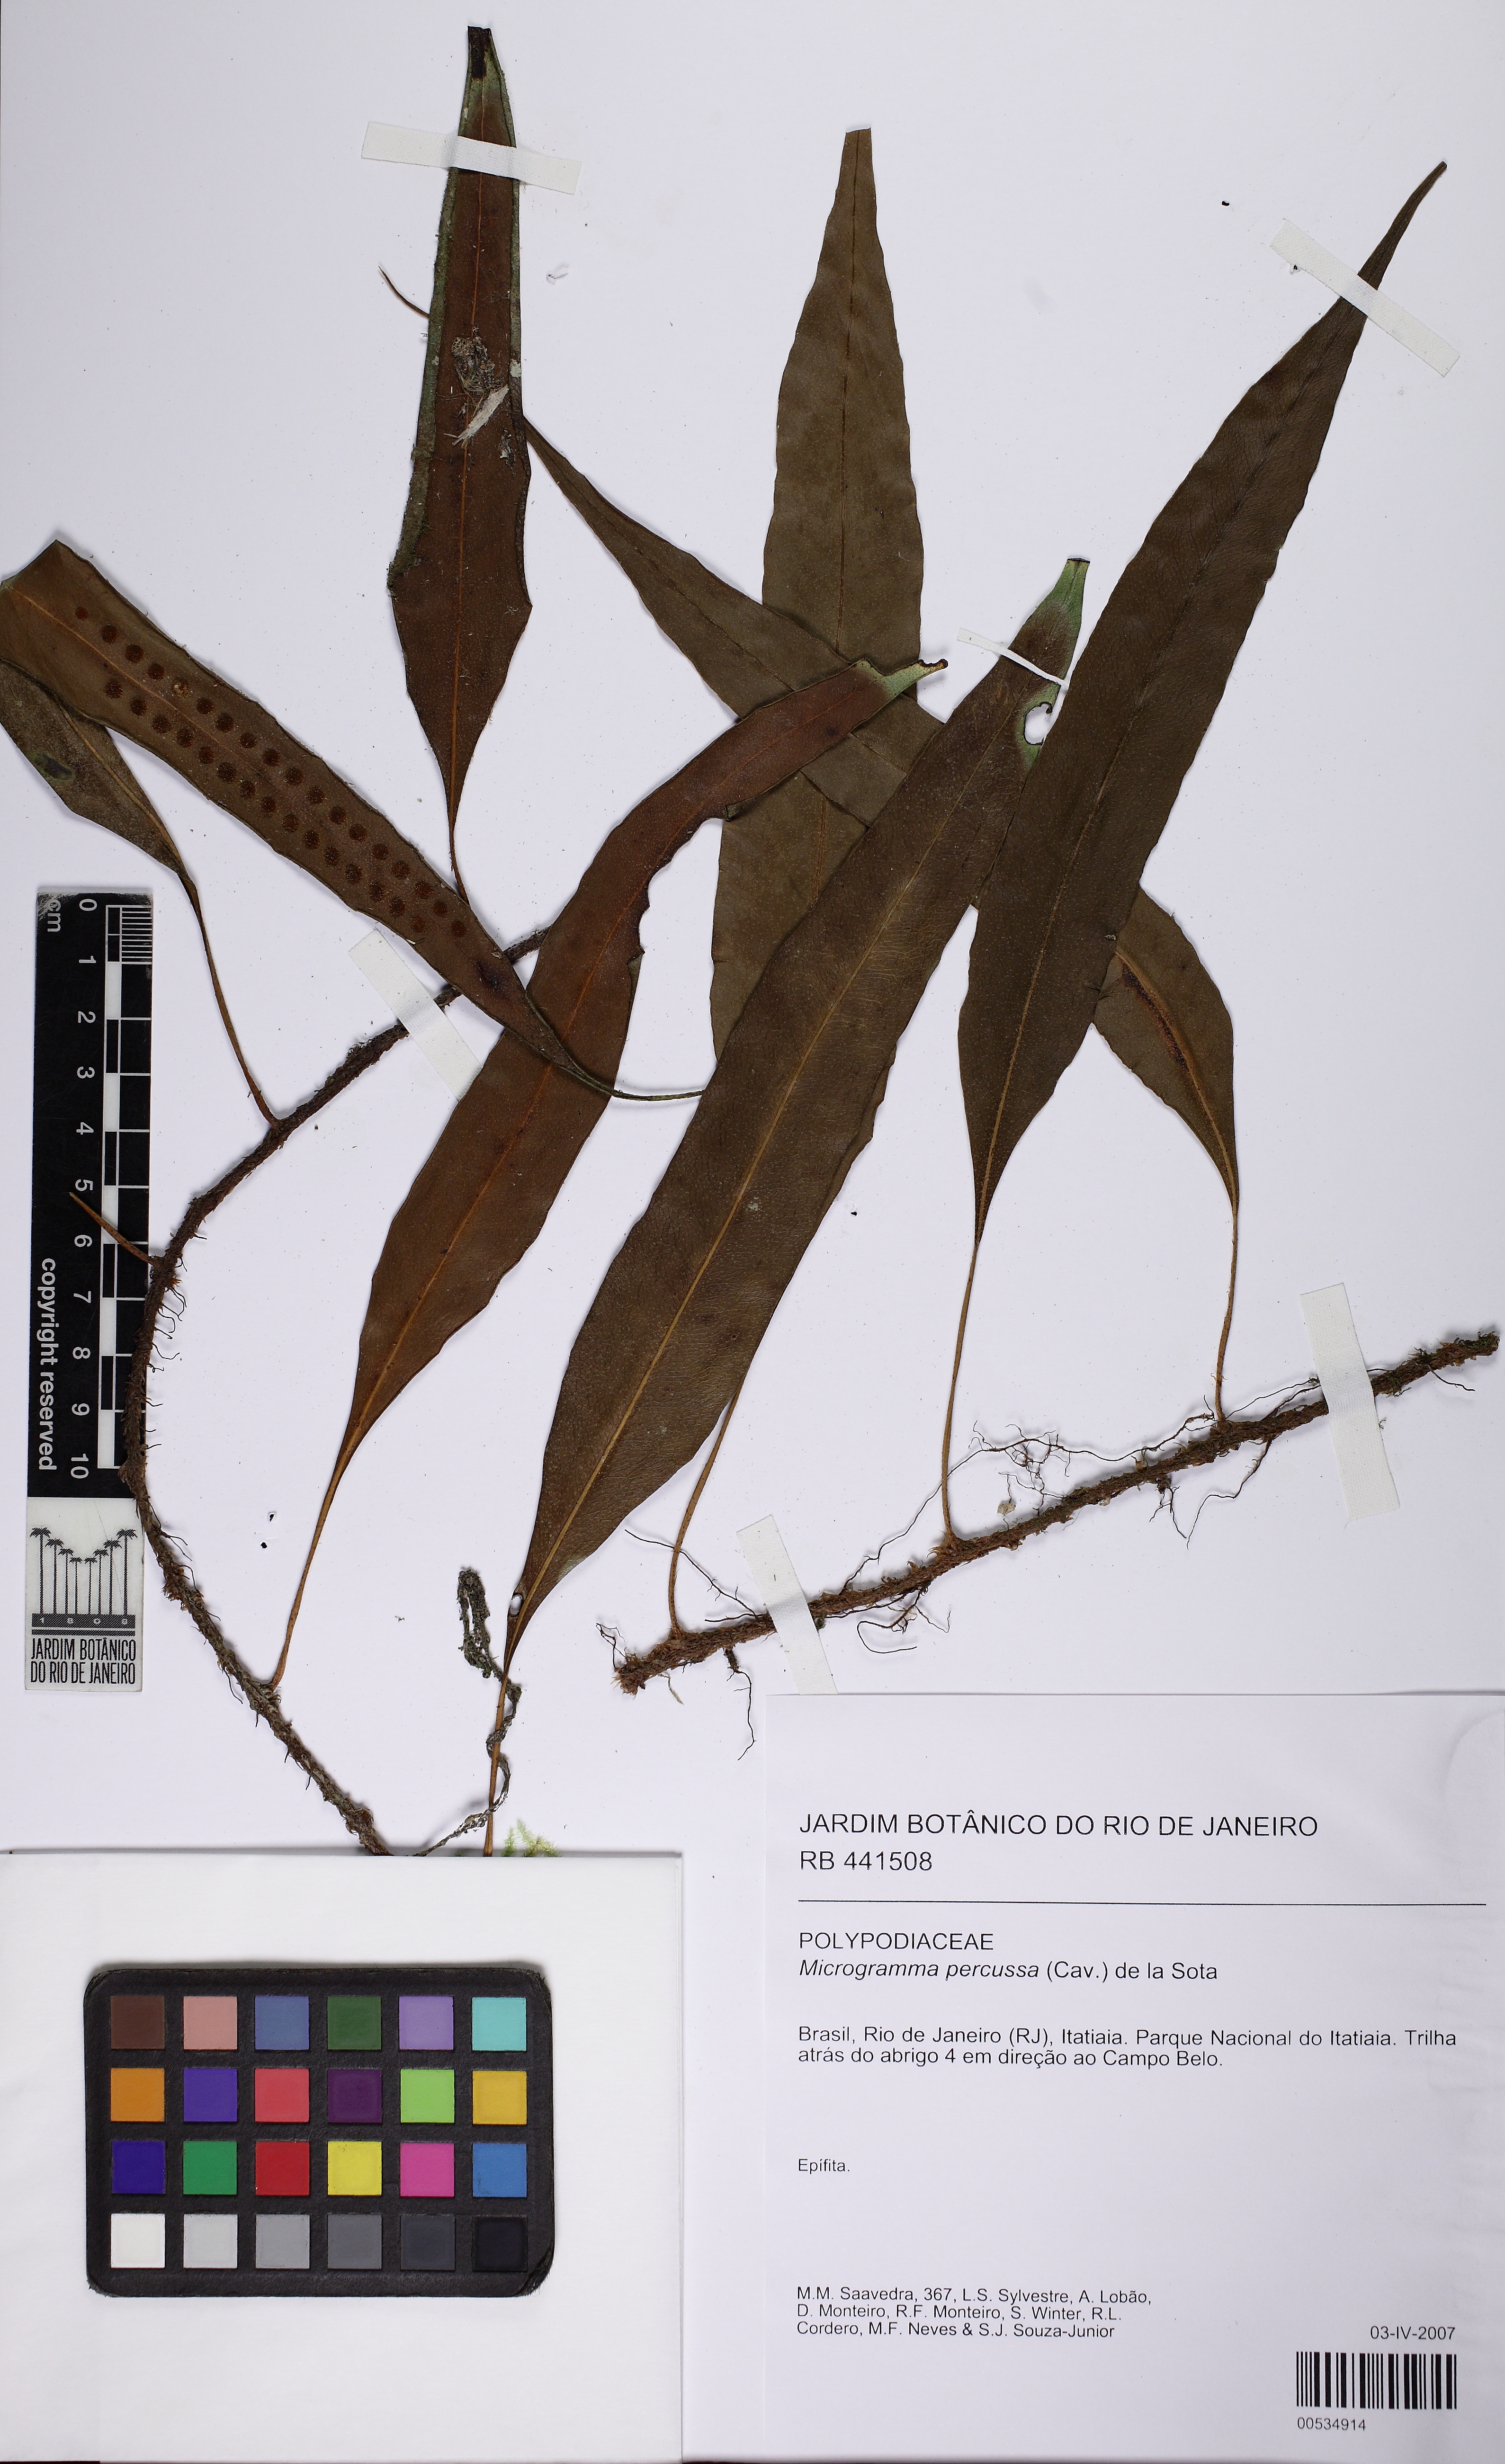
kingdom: Plantae
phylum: Tracheophyta
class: Polypodiopsida
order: Polypodiales
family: Polypodiaceae
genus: Microgramma
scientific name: Microgramma percussa
